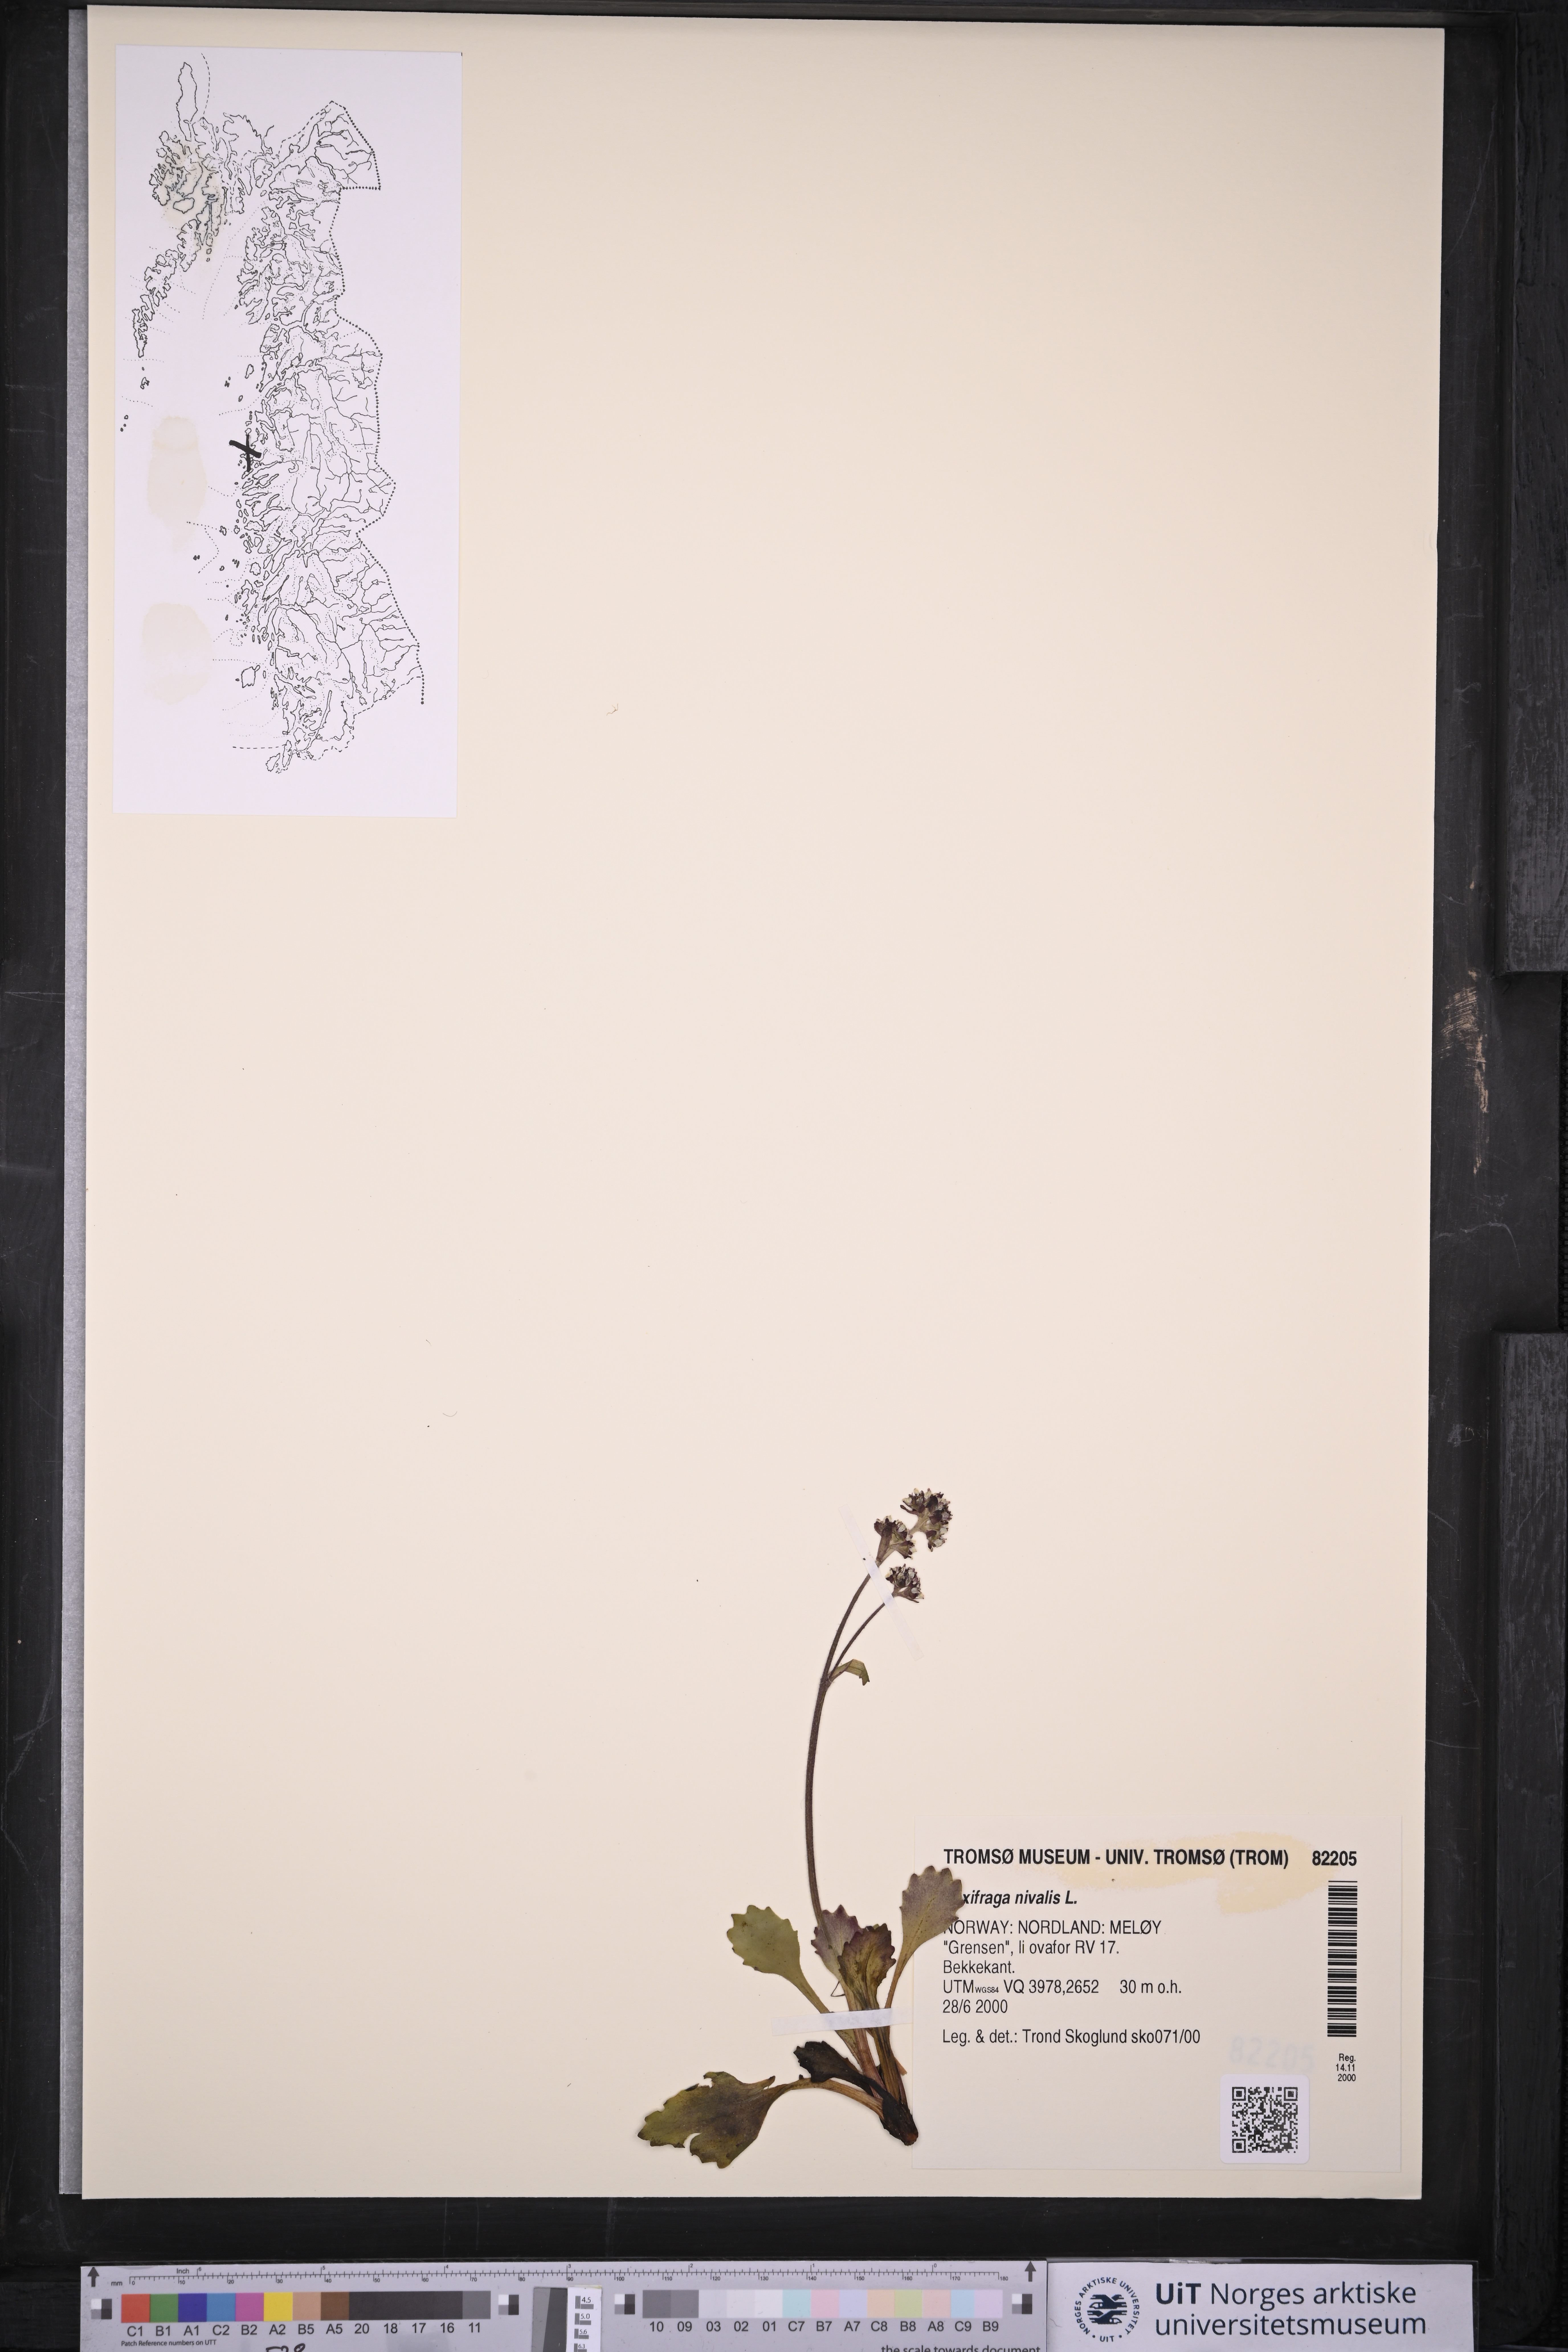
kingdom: Plantae
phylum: Tracheophyta
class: Magnoliopsida
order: Saxifragales
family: Saxifragaceae
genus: Micranthes
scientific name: Micranthes nivalis
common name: Alpine saxifrage
